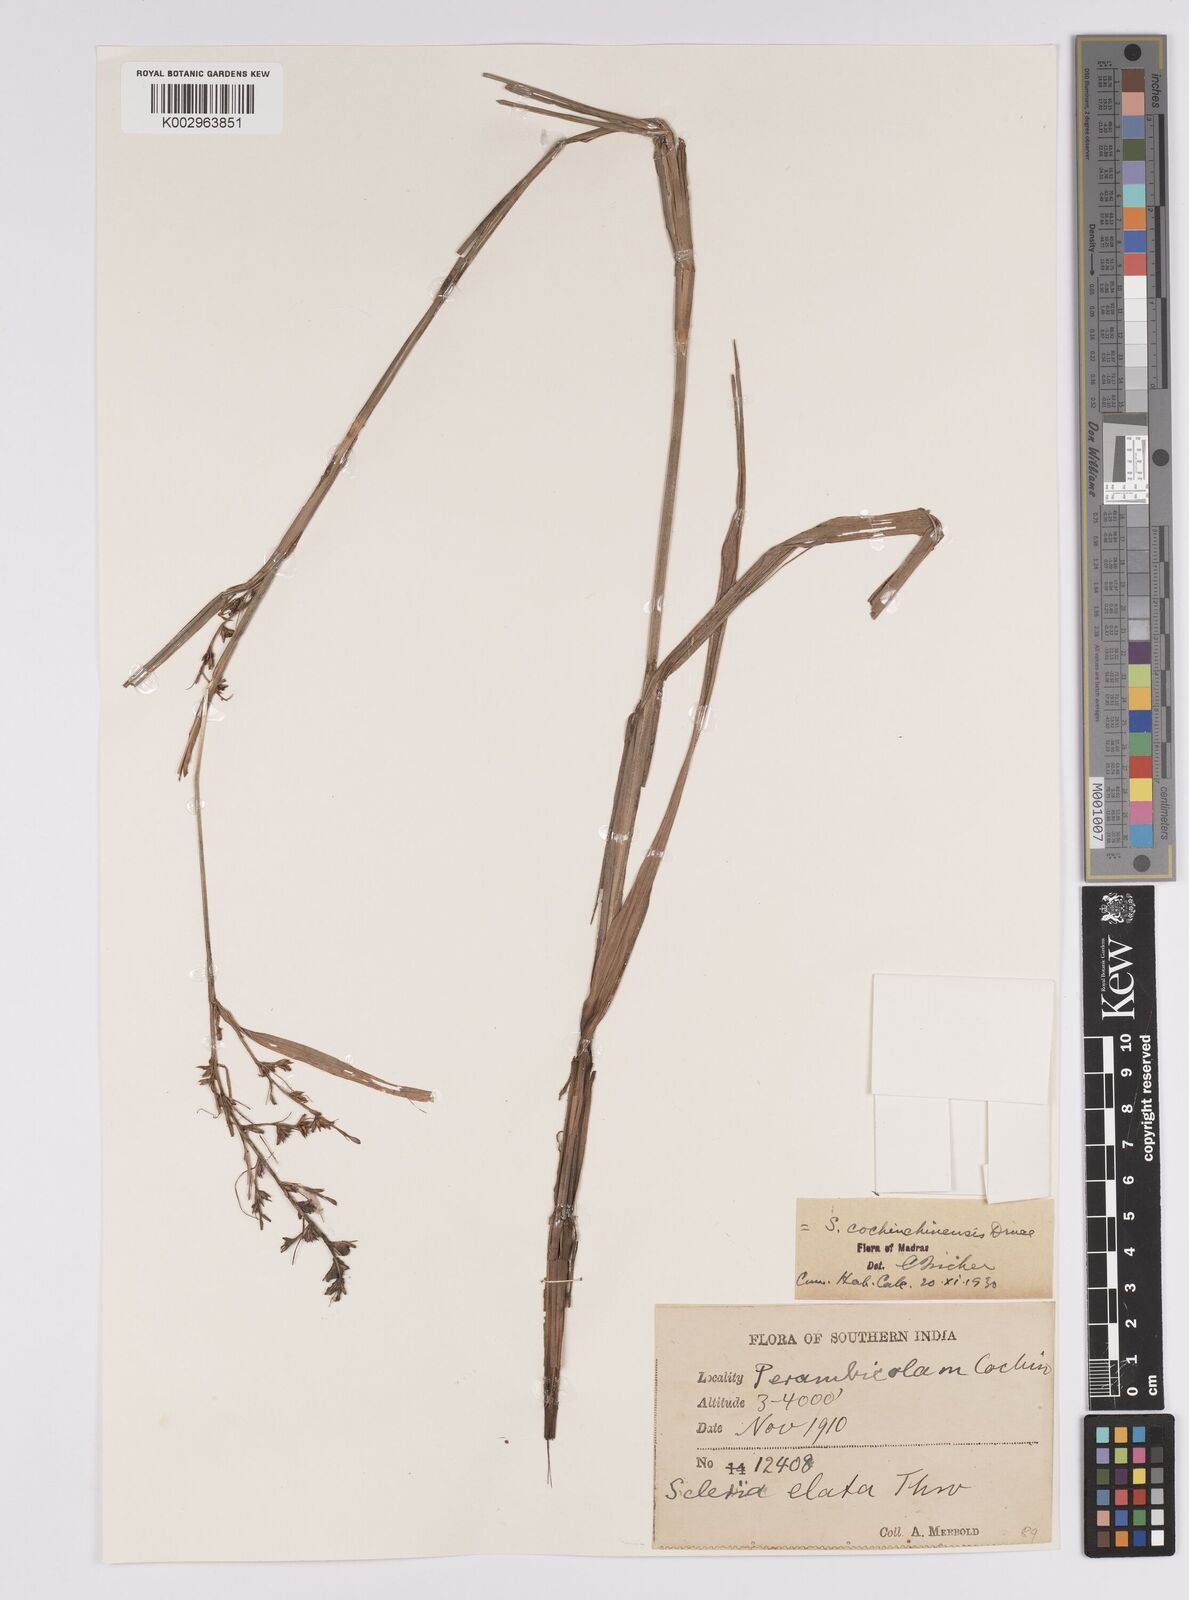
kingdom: Plantae
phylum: Tracheophyta
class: Liliopsida
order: Poales
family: Cyperaceae
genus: Scleria
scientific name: Scleria terrestris
